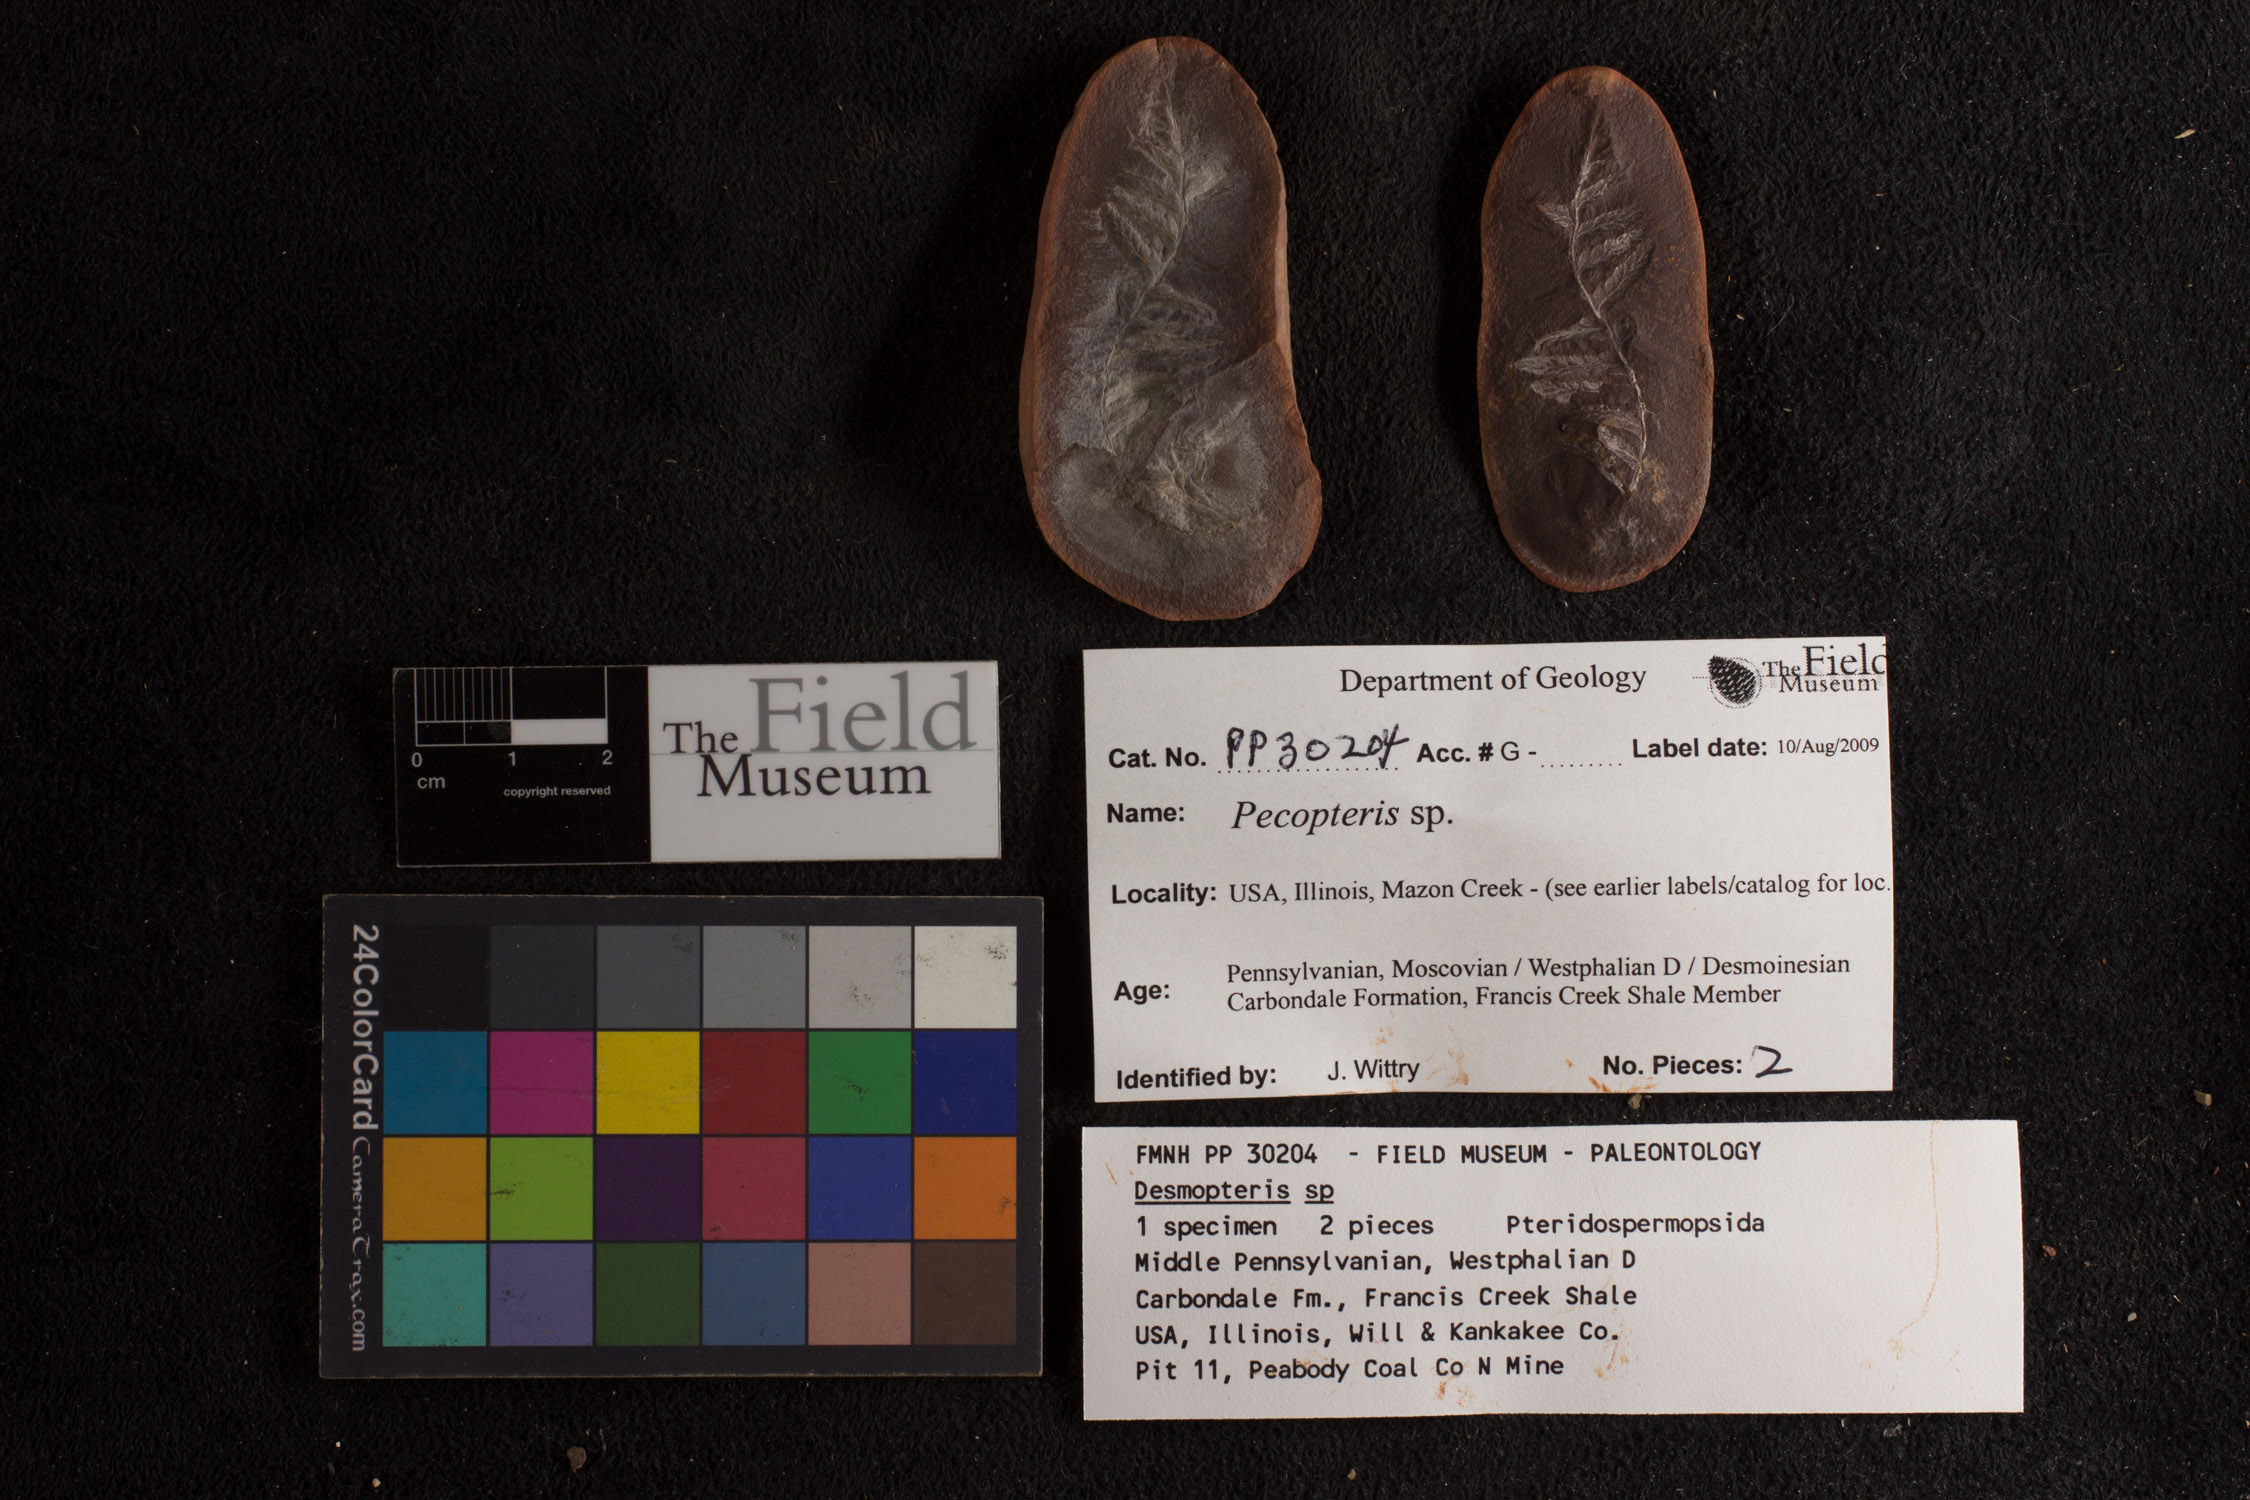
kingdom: Plantae
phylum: Tracheophyta
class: Polypodiopsida
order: Marattiales
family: Asterothecaceae
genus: Pecopteris
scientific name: Pecopteris
